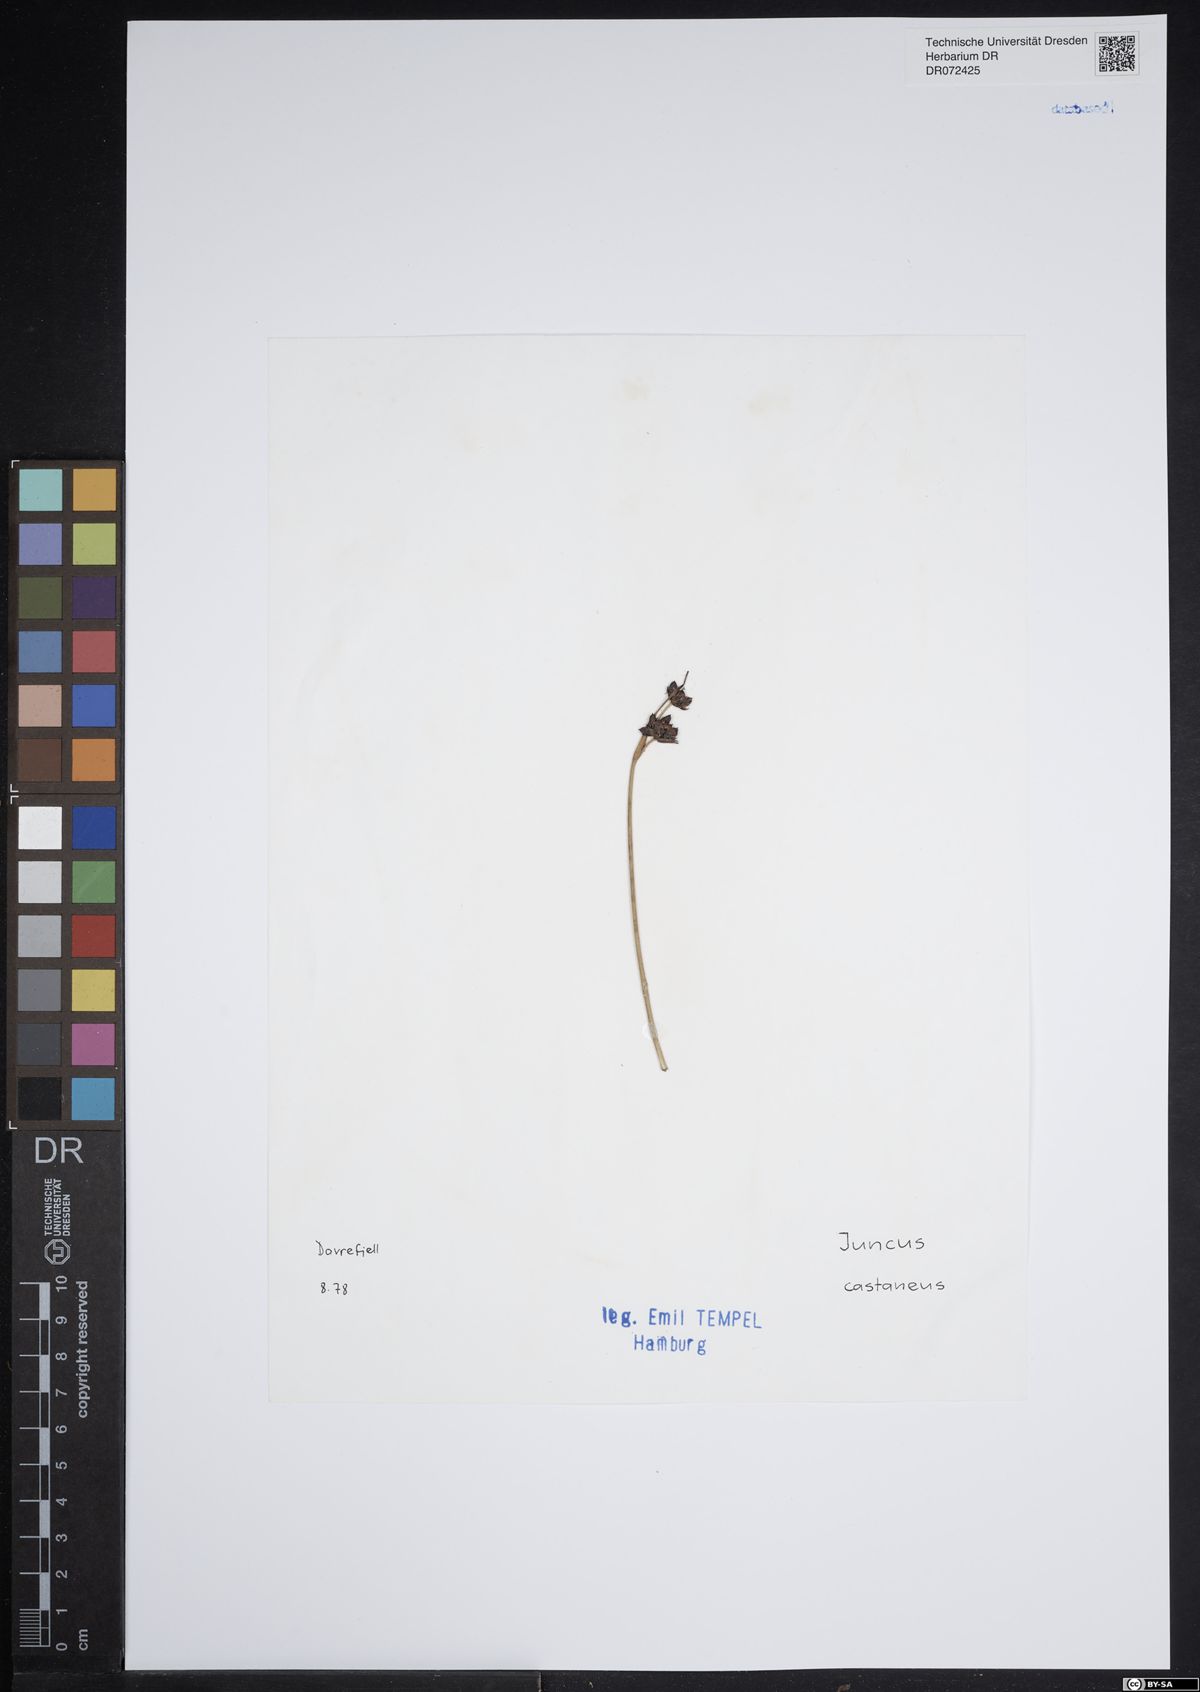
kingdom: Plantae
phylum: Tracheophyta
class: Liliopsida
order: Poales
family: Juncaceae
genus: Juncus
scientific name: Juncus castaneus
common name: Chestnut rush
